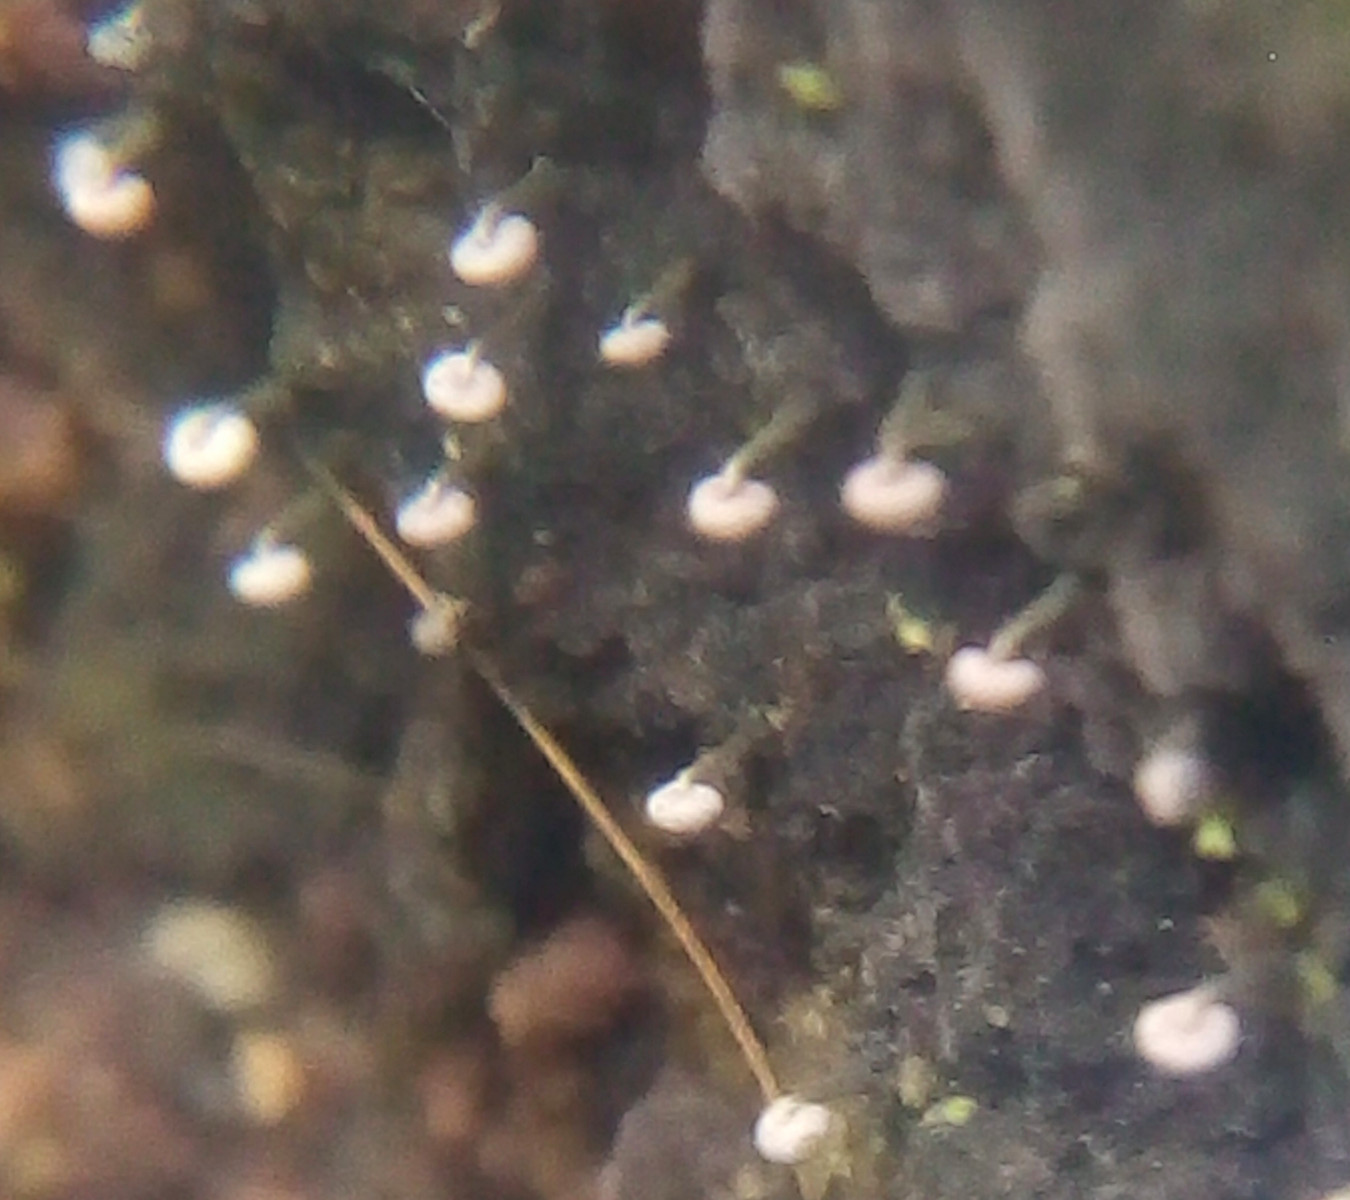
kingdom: Protozoa
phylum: Mycetozoa
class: Myxomycetes
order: Physarales
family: Physaraceae
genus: Physarum
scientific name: Physarum album
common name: nikkende støvknop
